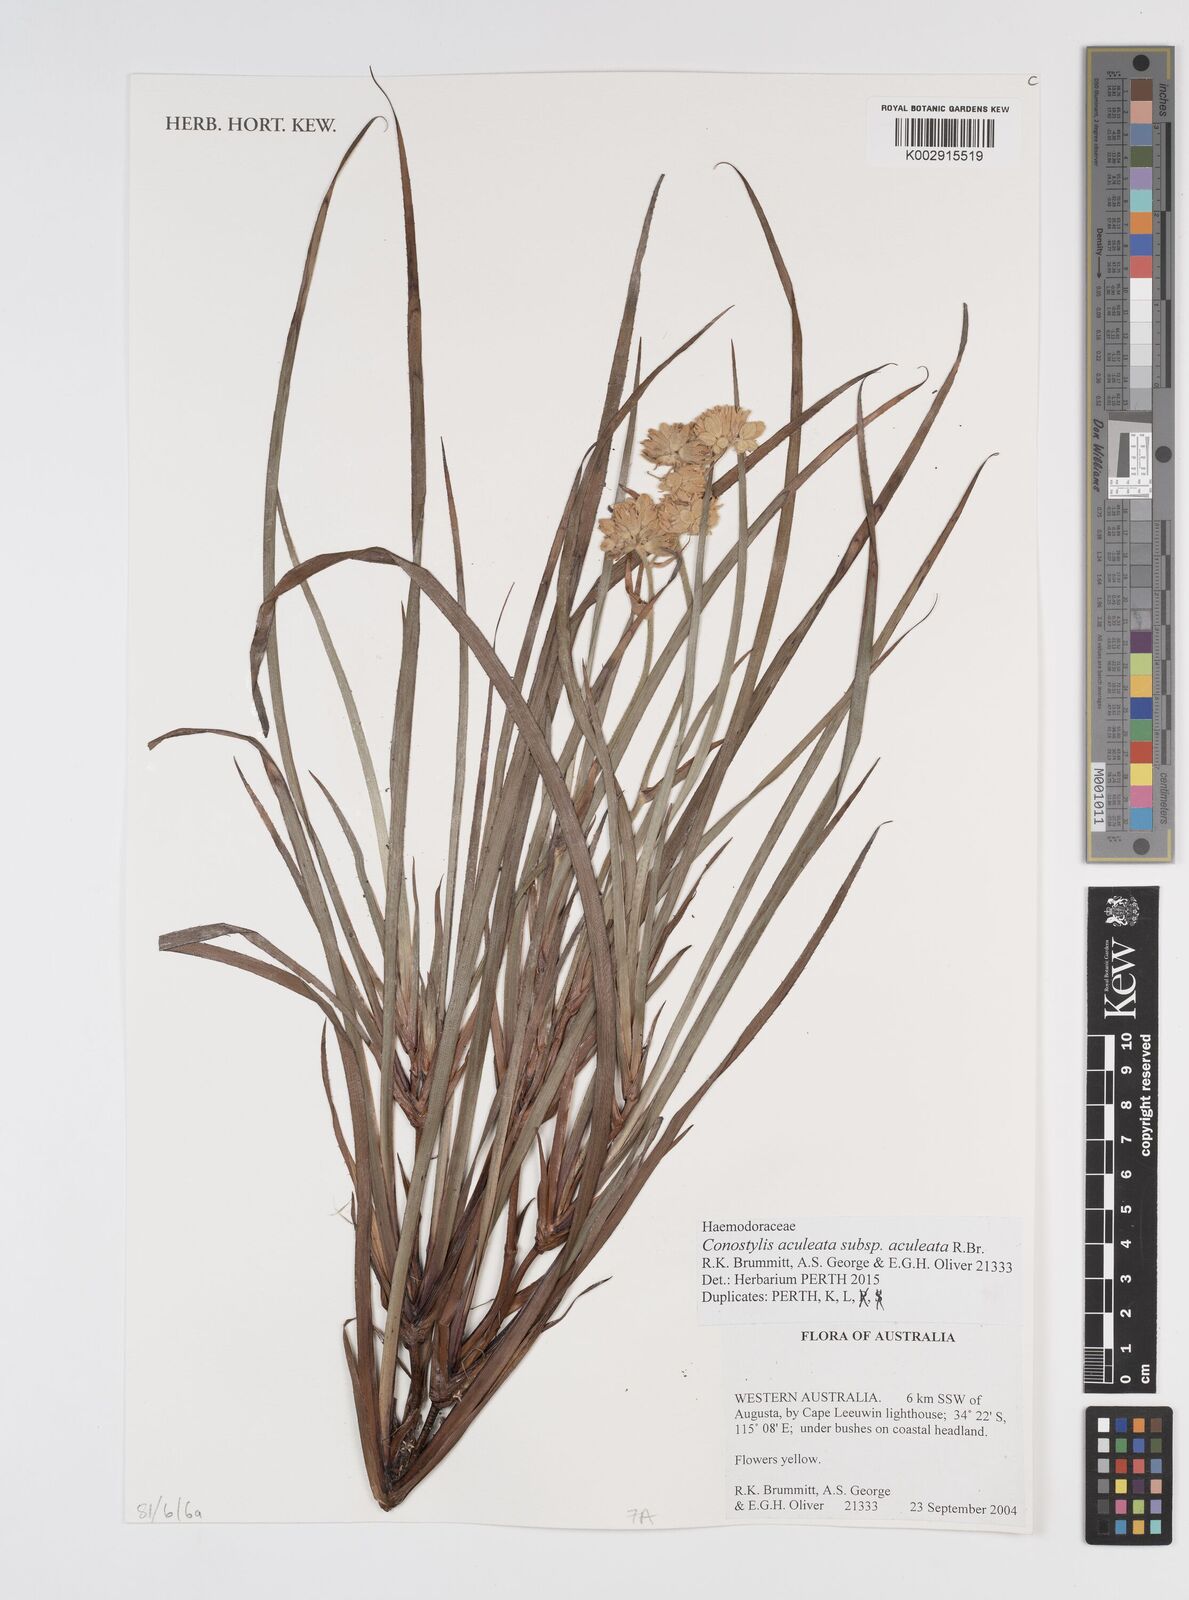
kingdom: Plantae
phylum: Tracheophyta
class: Liliopsida
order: Commelinales
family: Haemodoraceae
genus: Conostylis
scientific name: Conostylis aculeata
